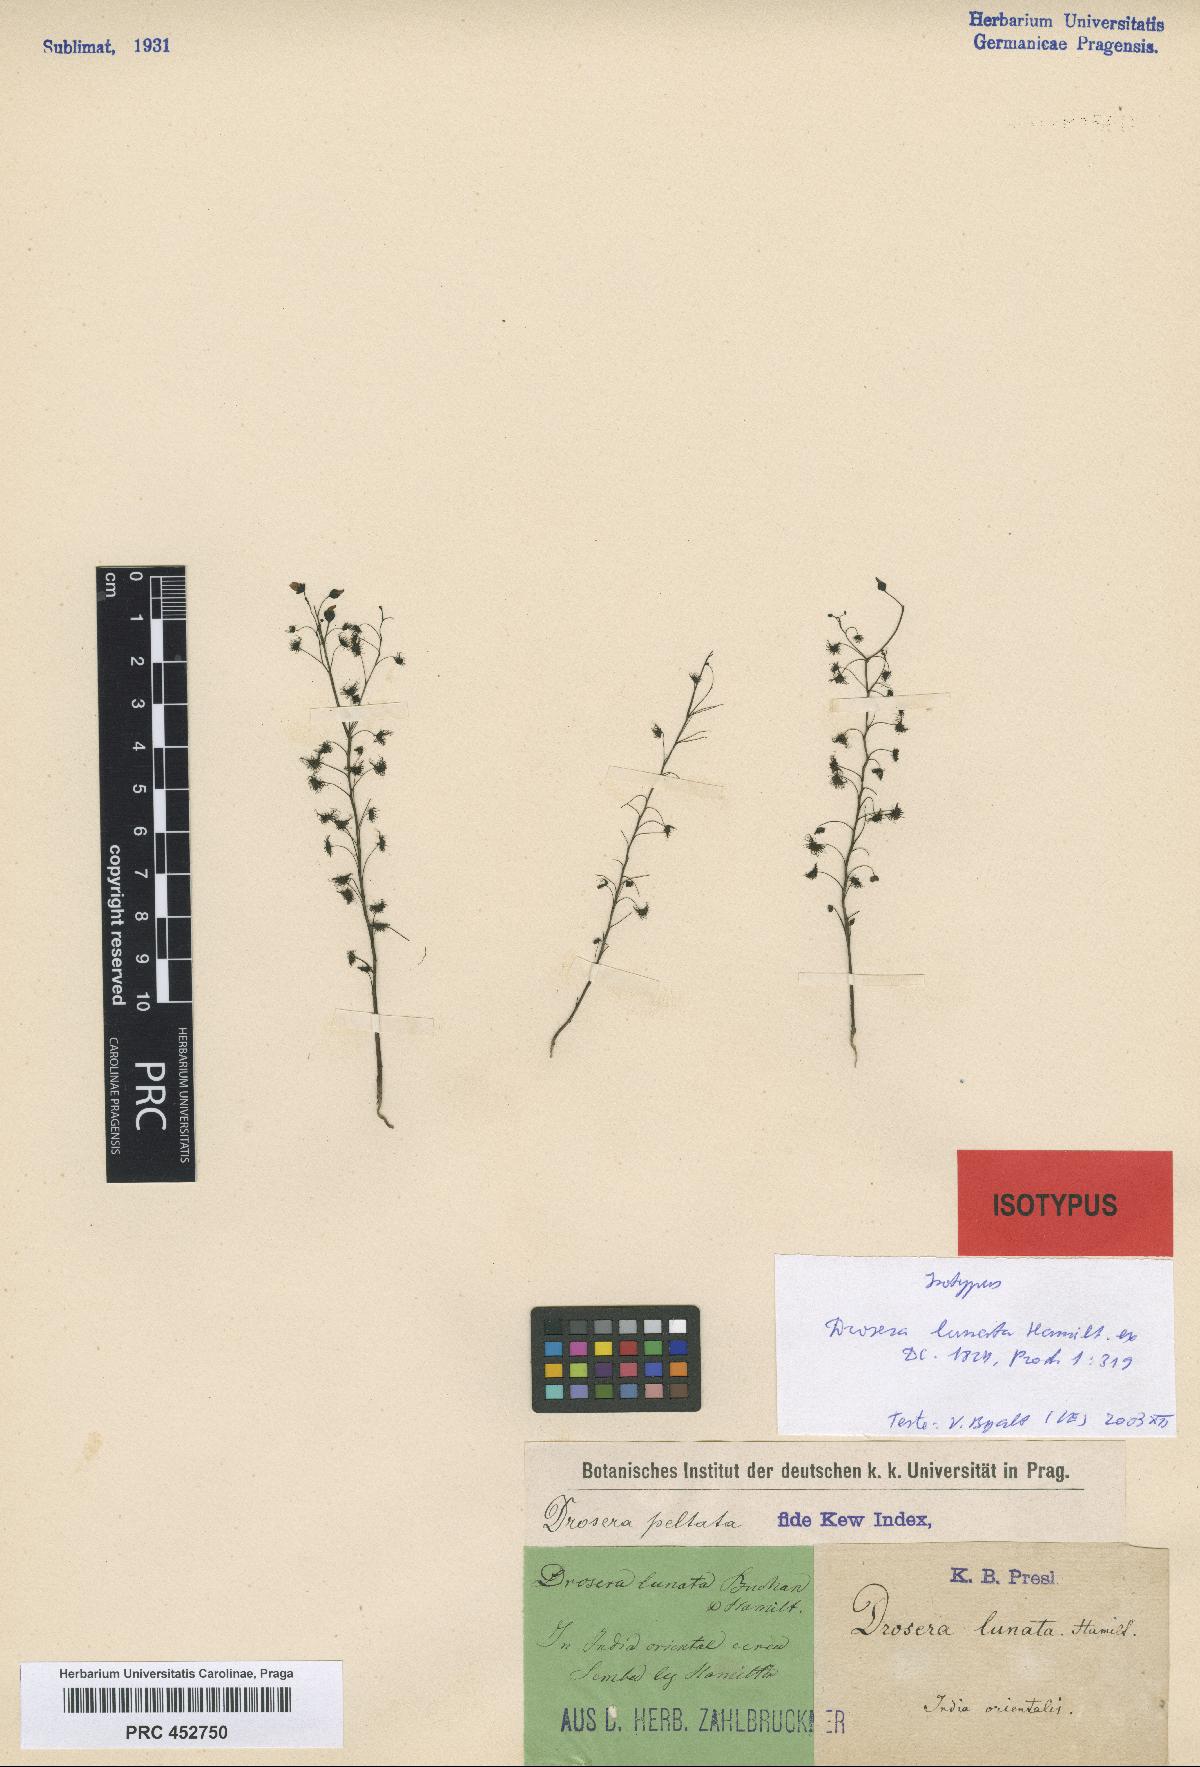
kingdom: Plantae
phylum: Tracheophyta
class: Magnoliopsida
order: Caryophyllales
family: Droseraceae
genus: Drosera
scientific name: Drosera peltata
